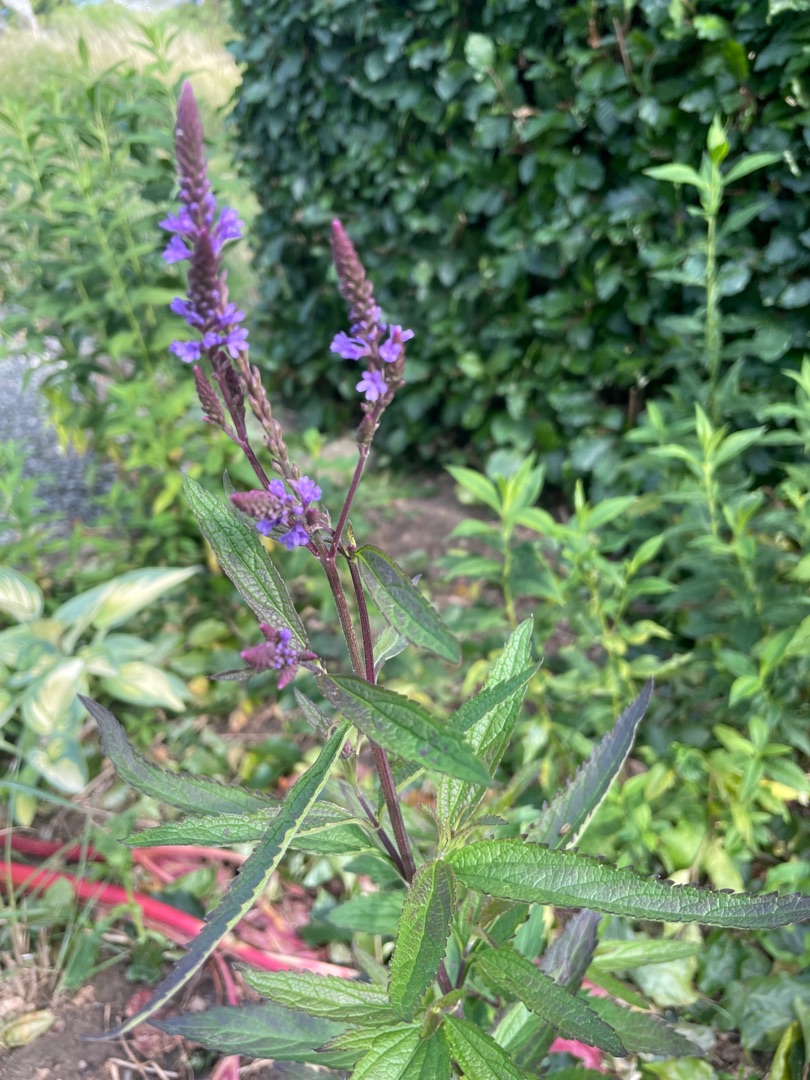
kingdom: Plantae
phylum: Tracheophyta
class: Magnoliopsida
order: Lamiales
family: Verbenaceae
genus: Verbena
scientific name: Verbena hastata
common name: Blå jernurt
